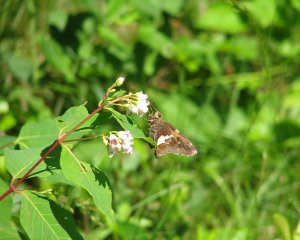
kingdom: Animalia
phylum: Arthropoda
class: Insecta
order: Lepidoptera
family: Hesperiidae
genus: Epargyreus
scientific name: Epargyreus clarus
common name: Silver-spotted Skipper
